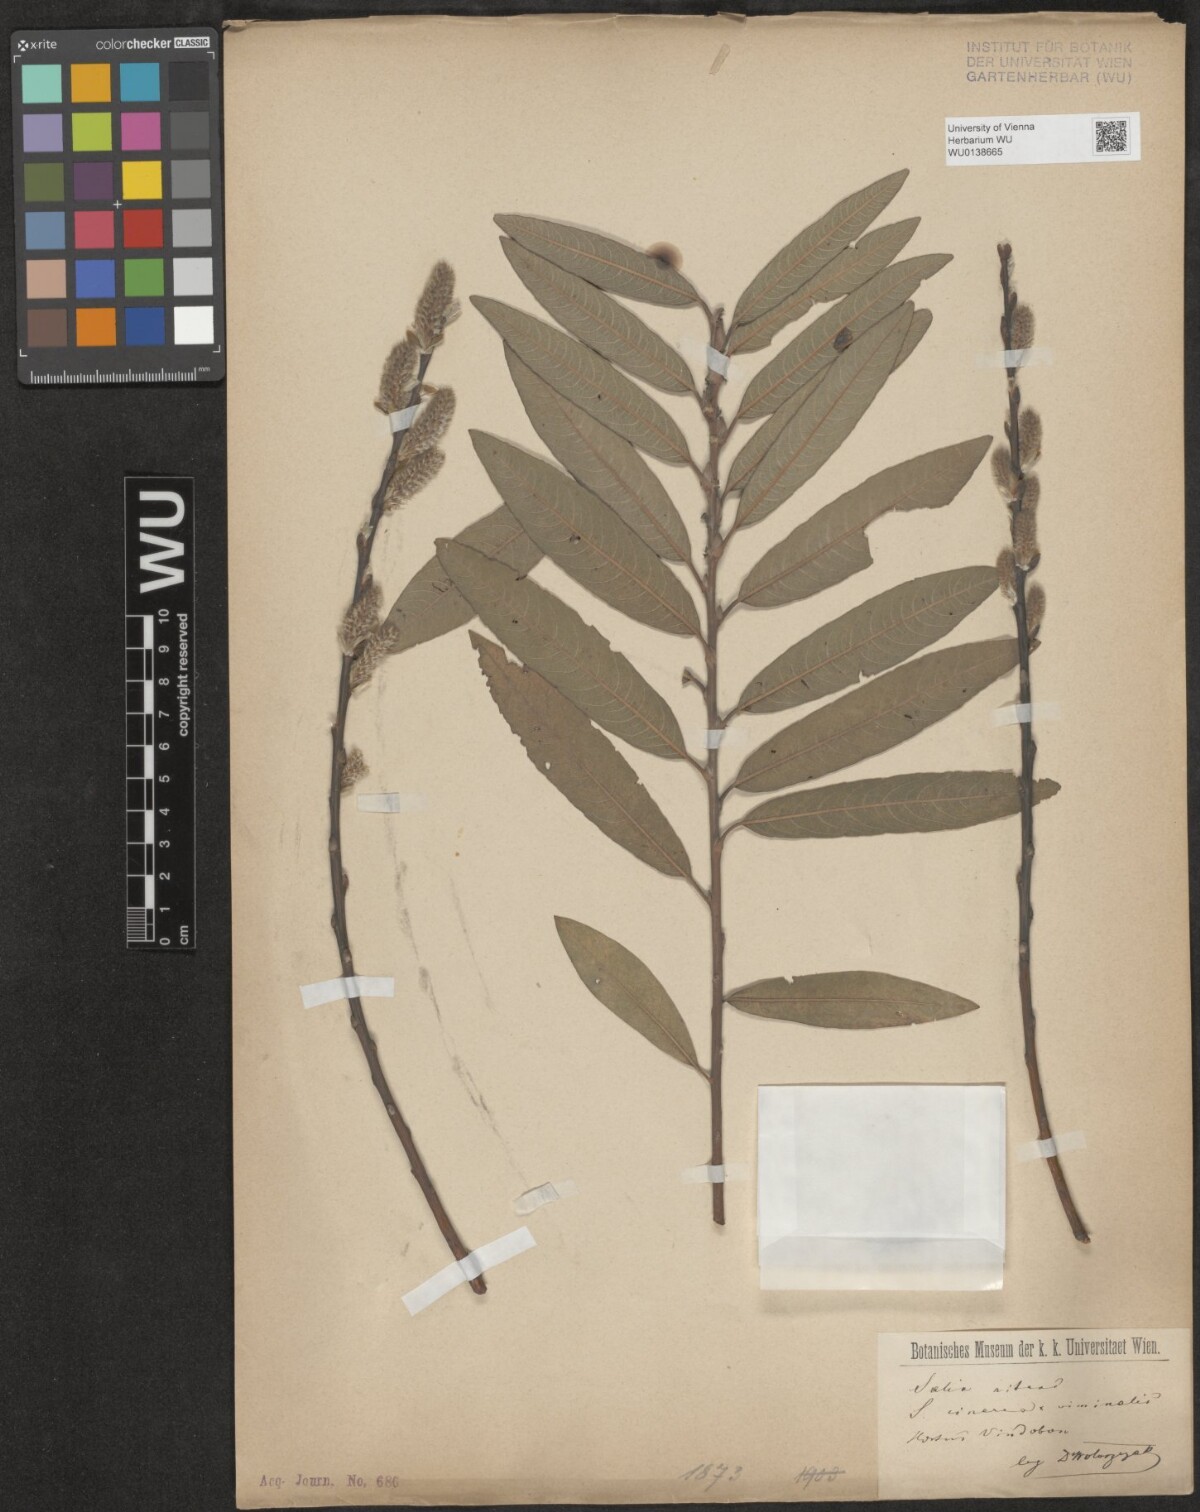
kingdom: Plantae
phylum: Tracheophyta
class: Magnoliopsida
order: Malpighiales
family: Salicaceae
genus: Salix
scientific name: Salix phylicifolia
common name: Tea-leaved willow
